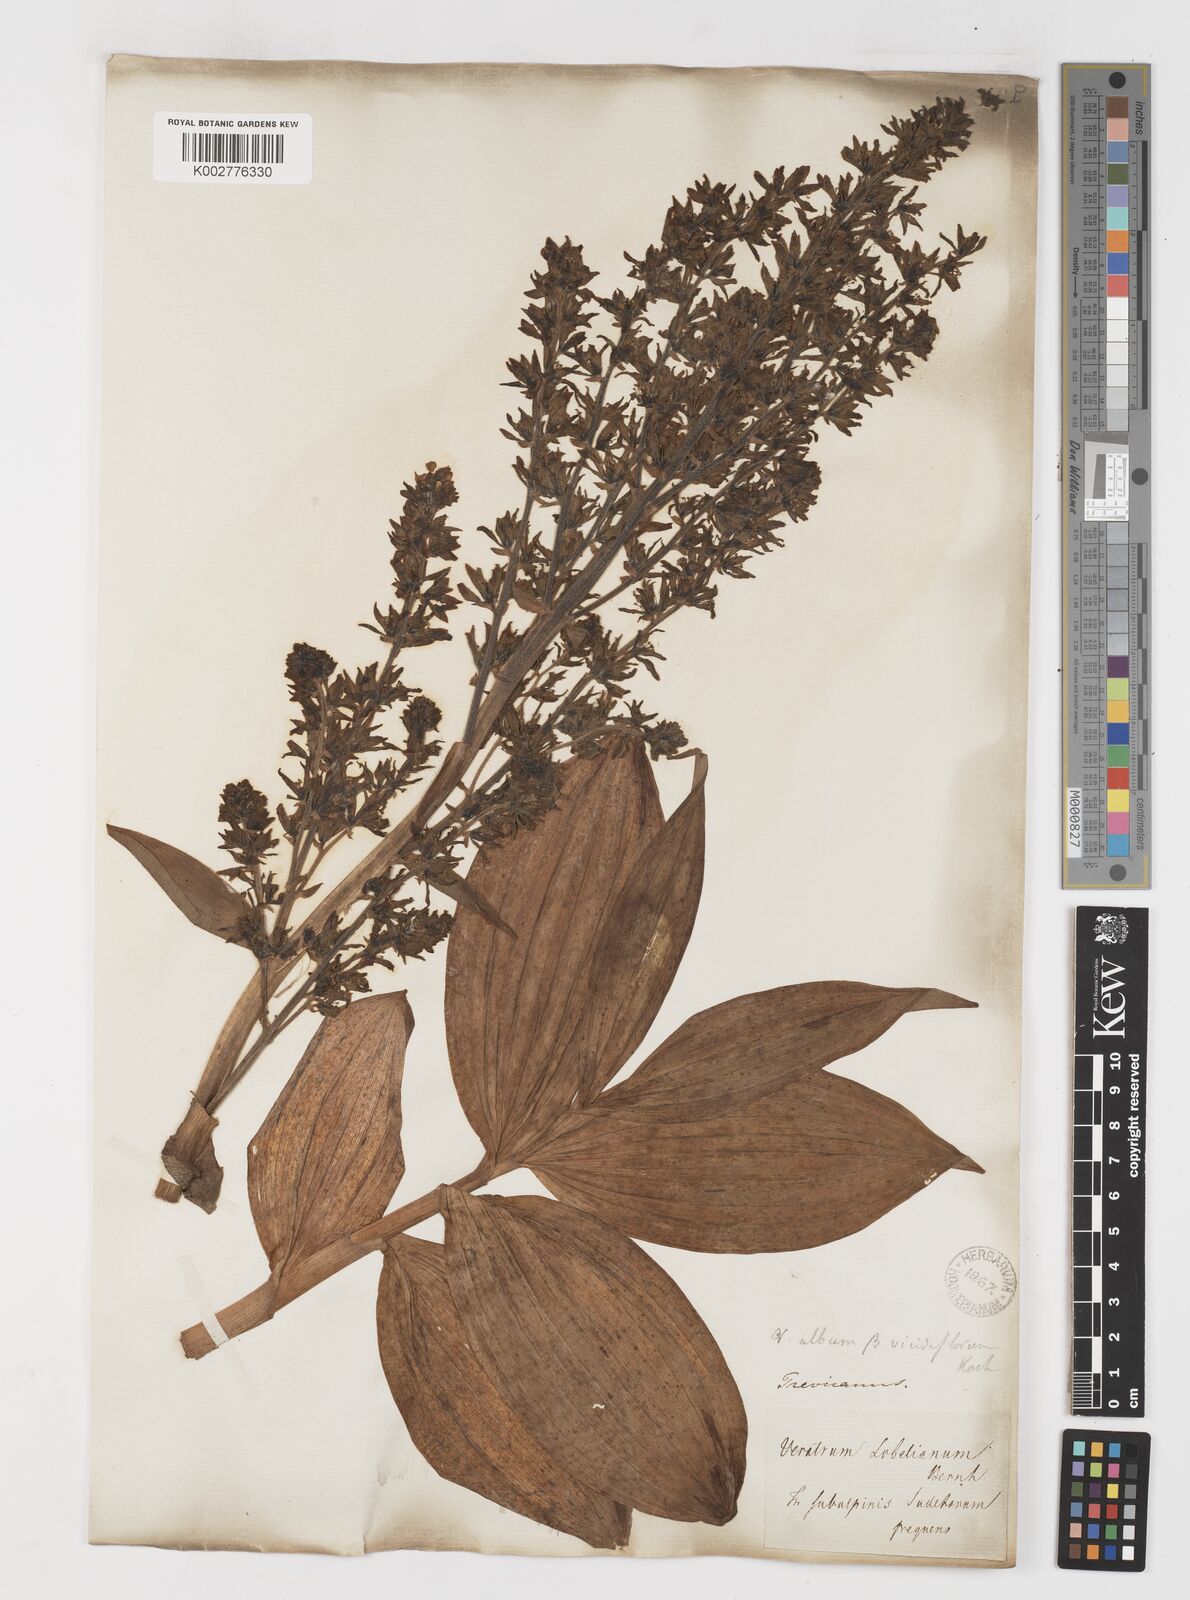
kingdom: Plantae
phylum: Tracheophyta
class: Liliopsida
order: Liliales
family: Melanthiaceae
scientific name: Melanthiaceae
